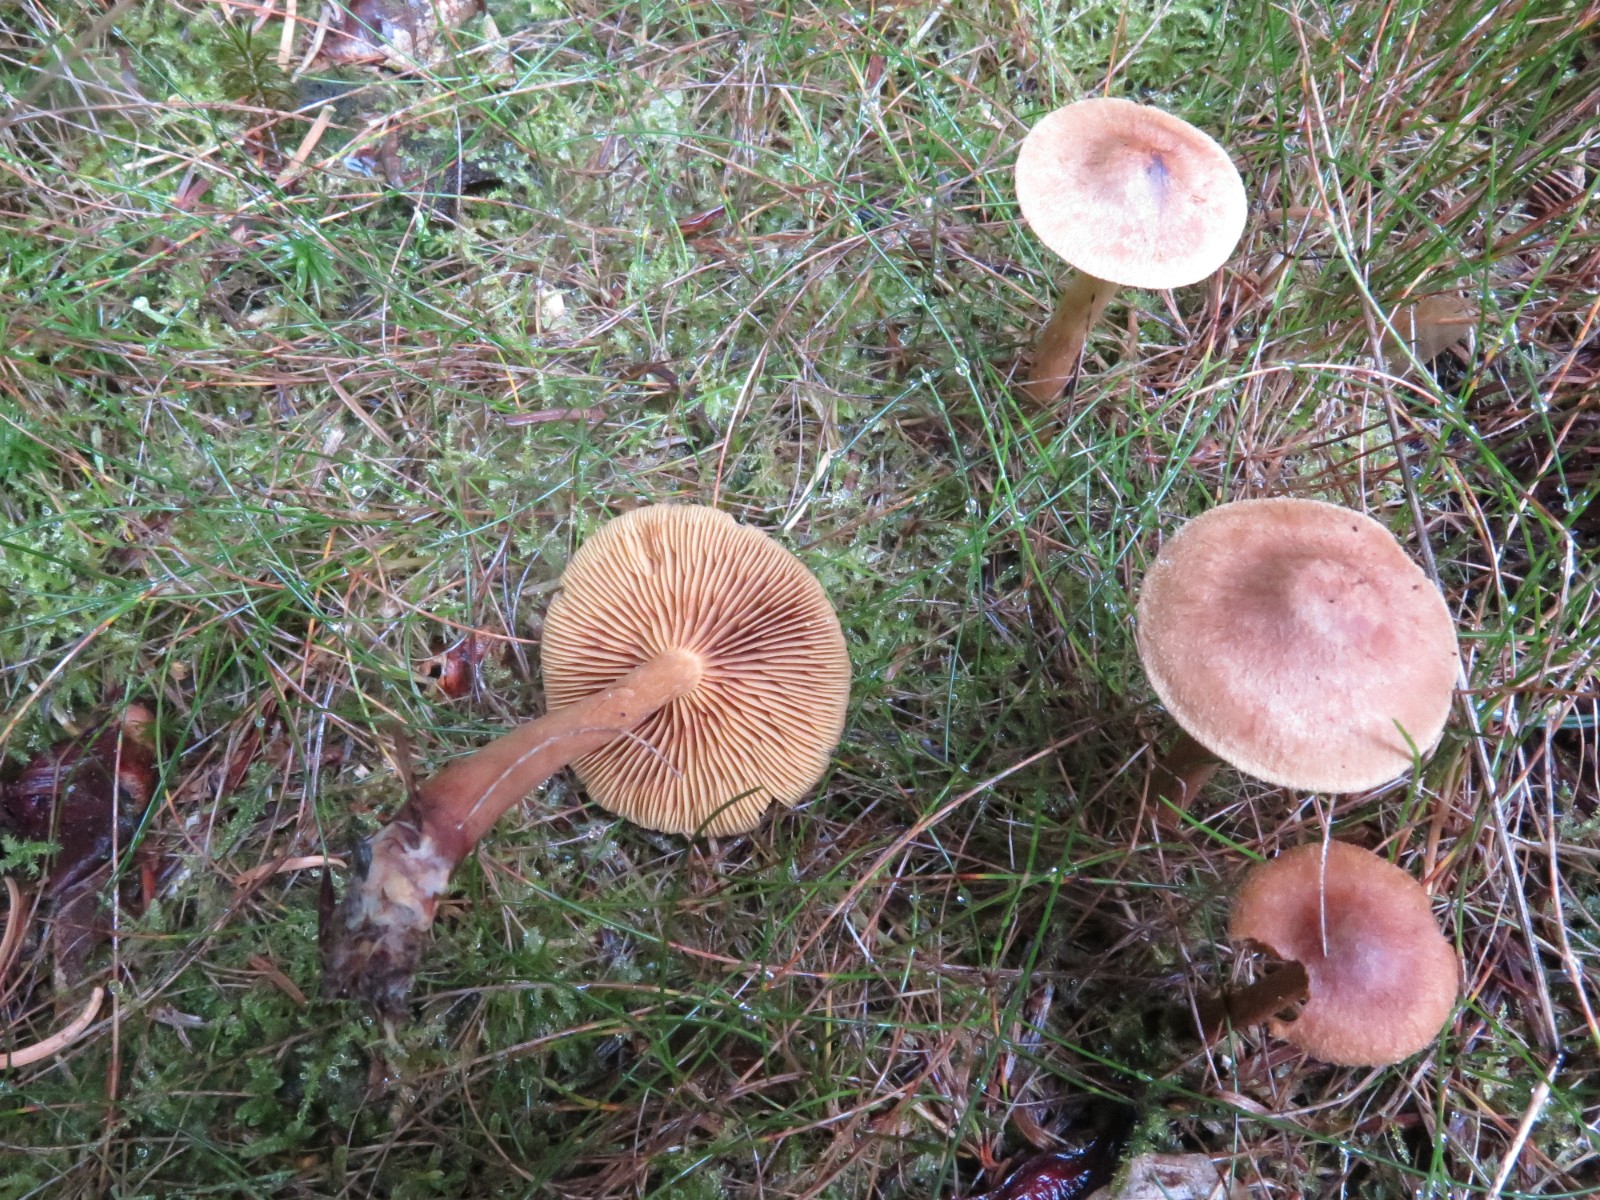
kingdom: Fungi
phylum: Basidiomycota
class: Agaricomycetes
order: Agaricales
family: Cortinariaceae
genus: Cortinarius
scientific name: Cortinarius
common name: gulbladet slørhat
